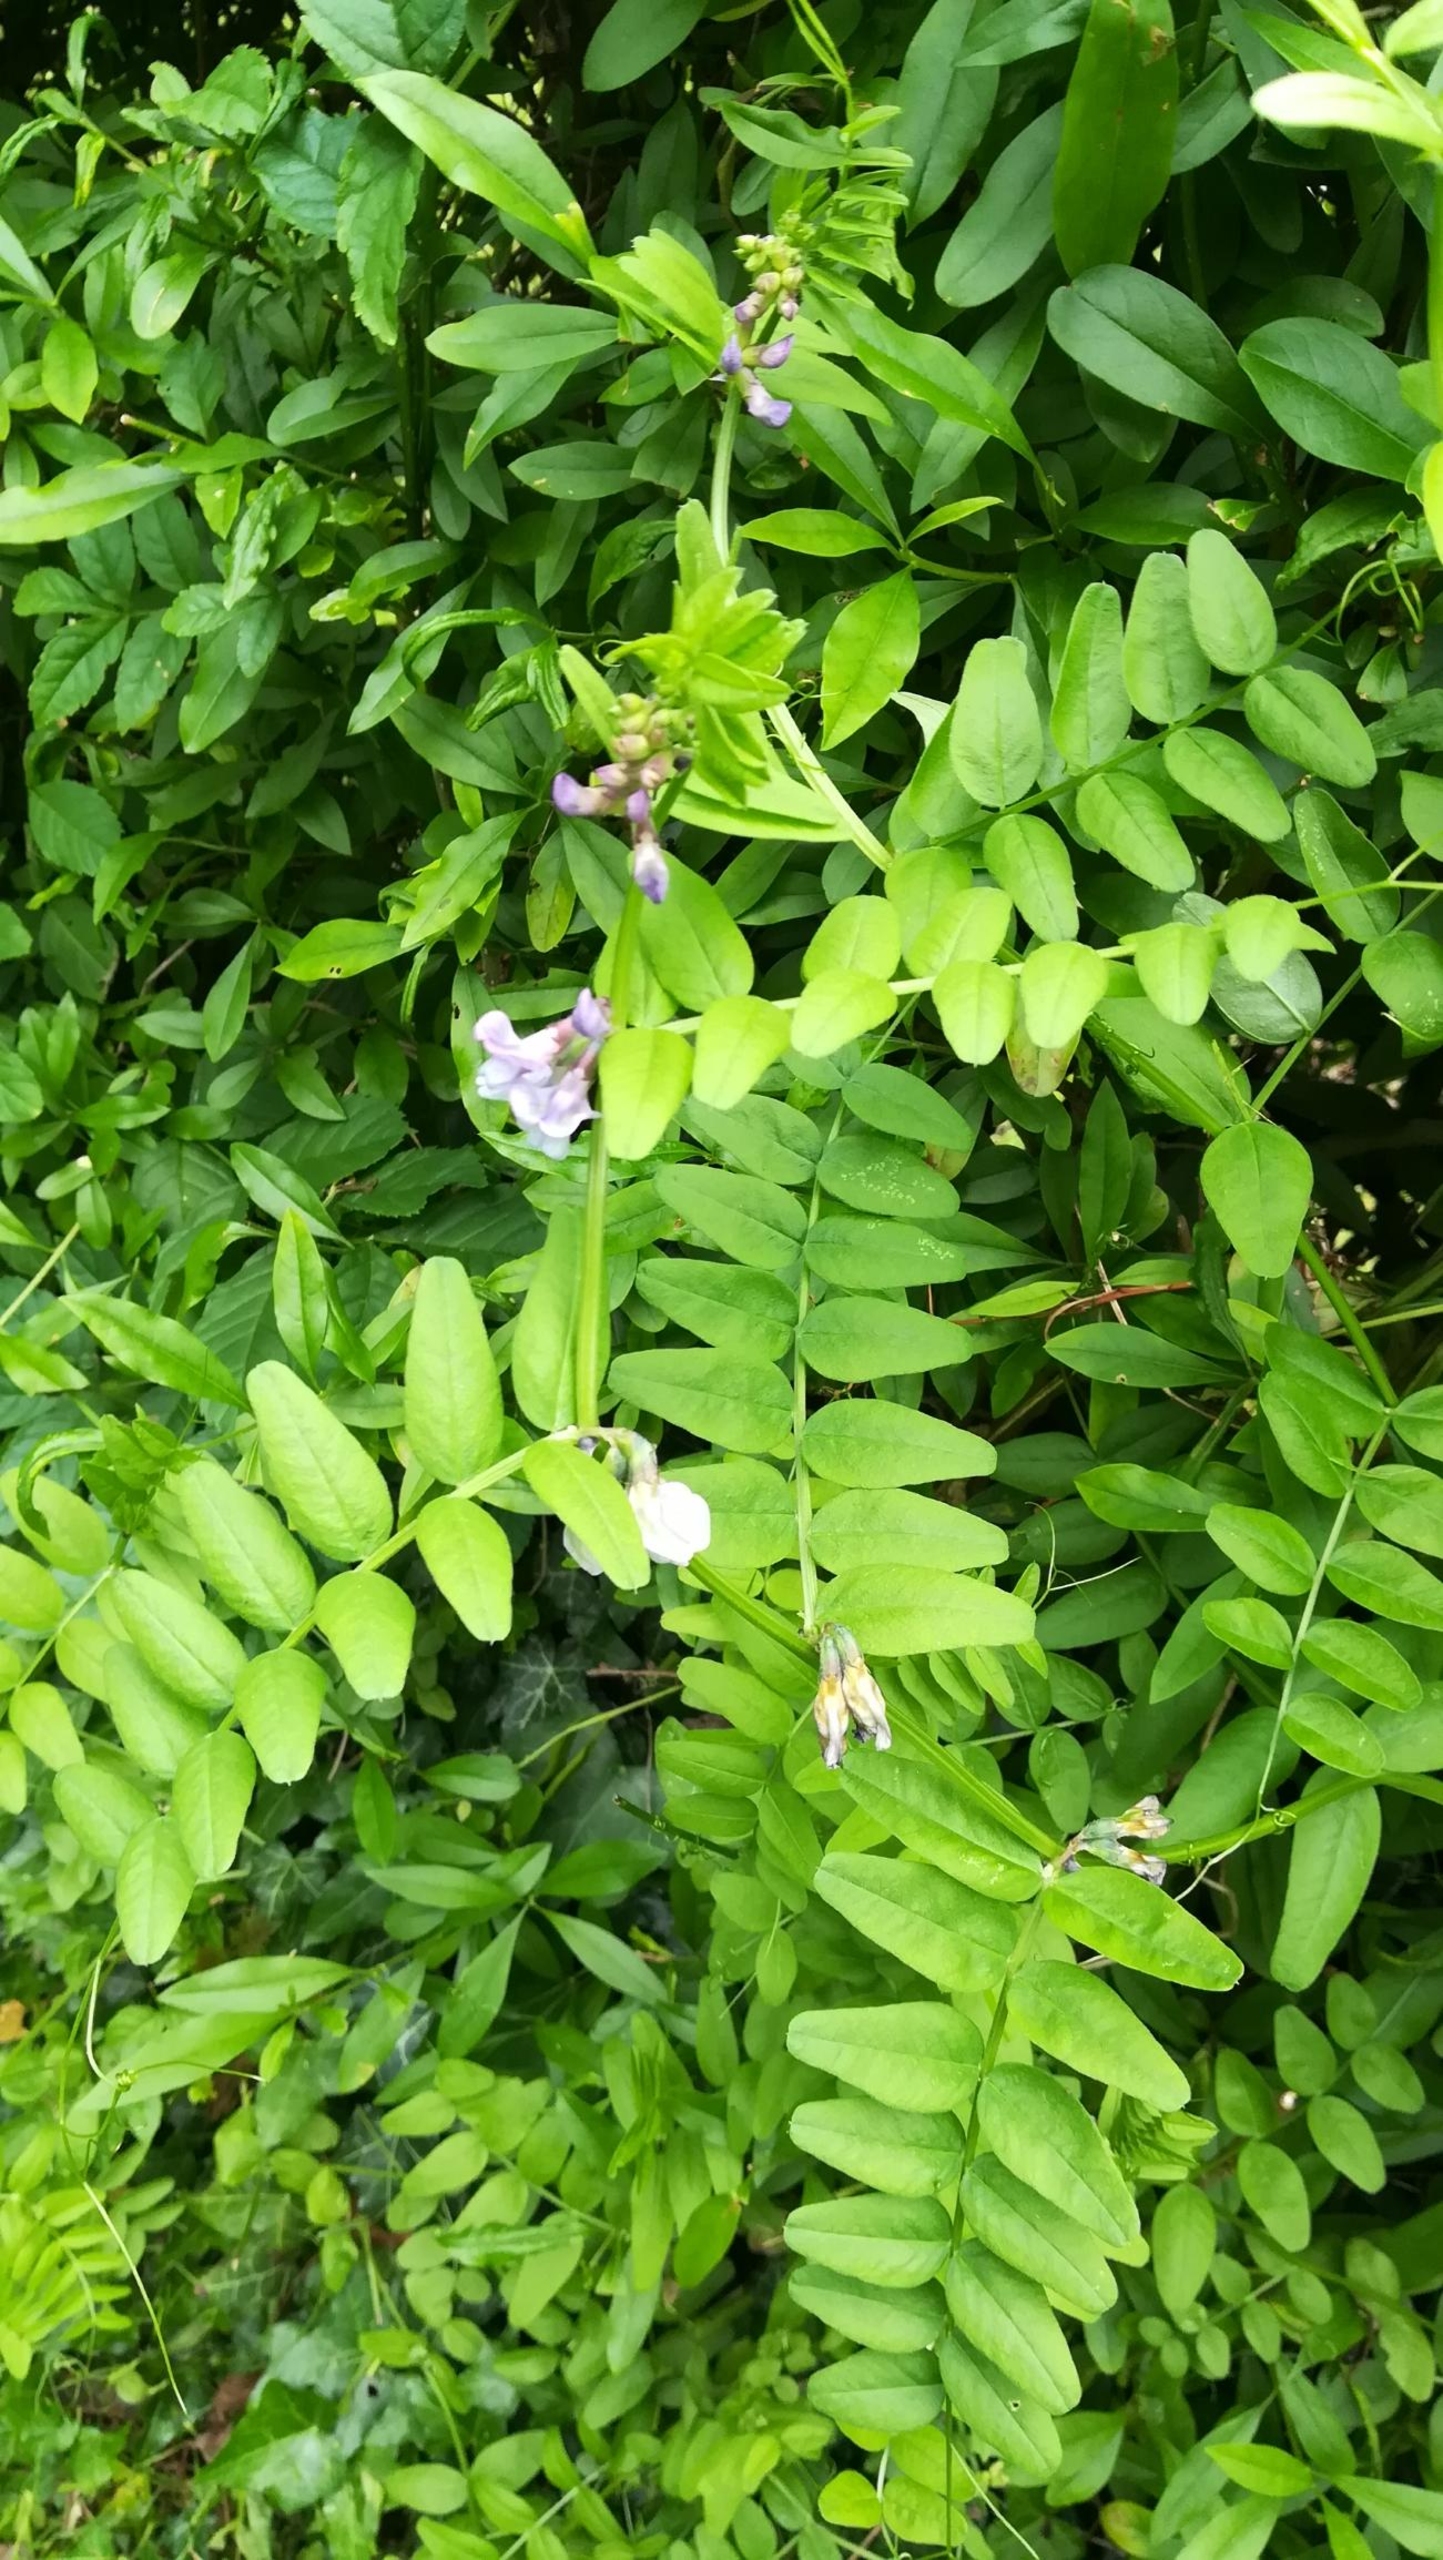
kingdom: Plantae
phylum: Tracheophyta
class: Magnoliopsida
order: Fabales
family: Fabaceae
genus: Vicia
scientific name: Vicia sepium
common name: Gærde-vikke
